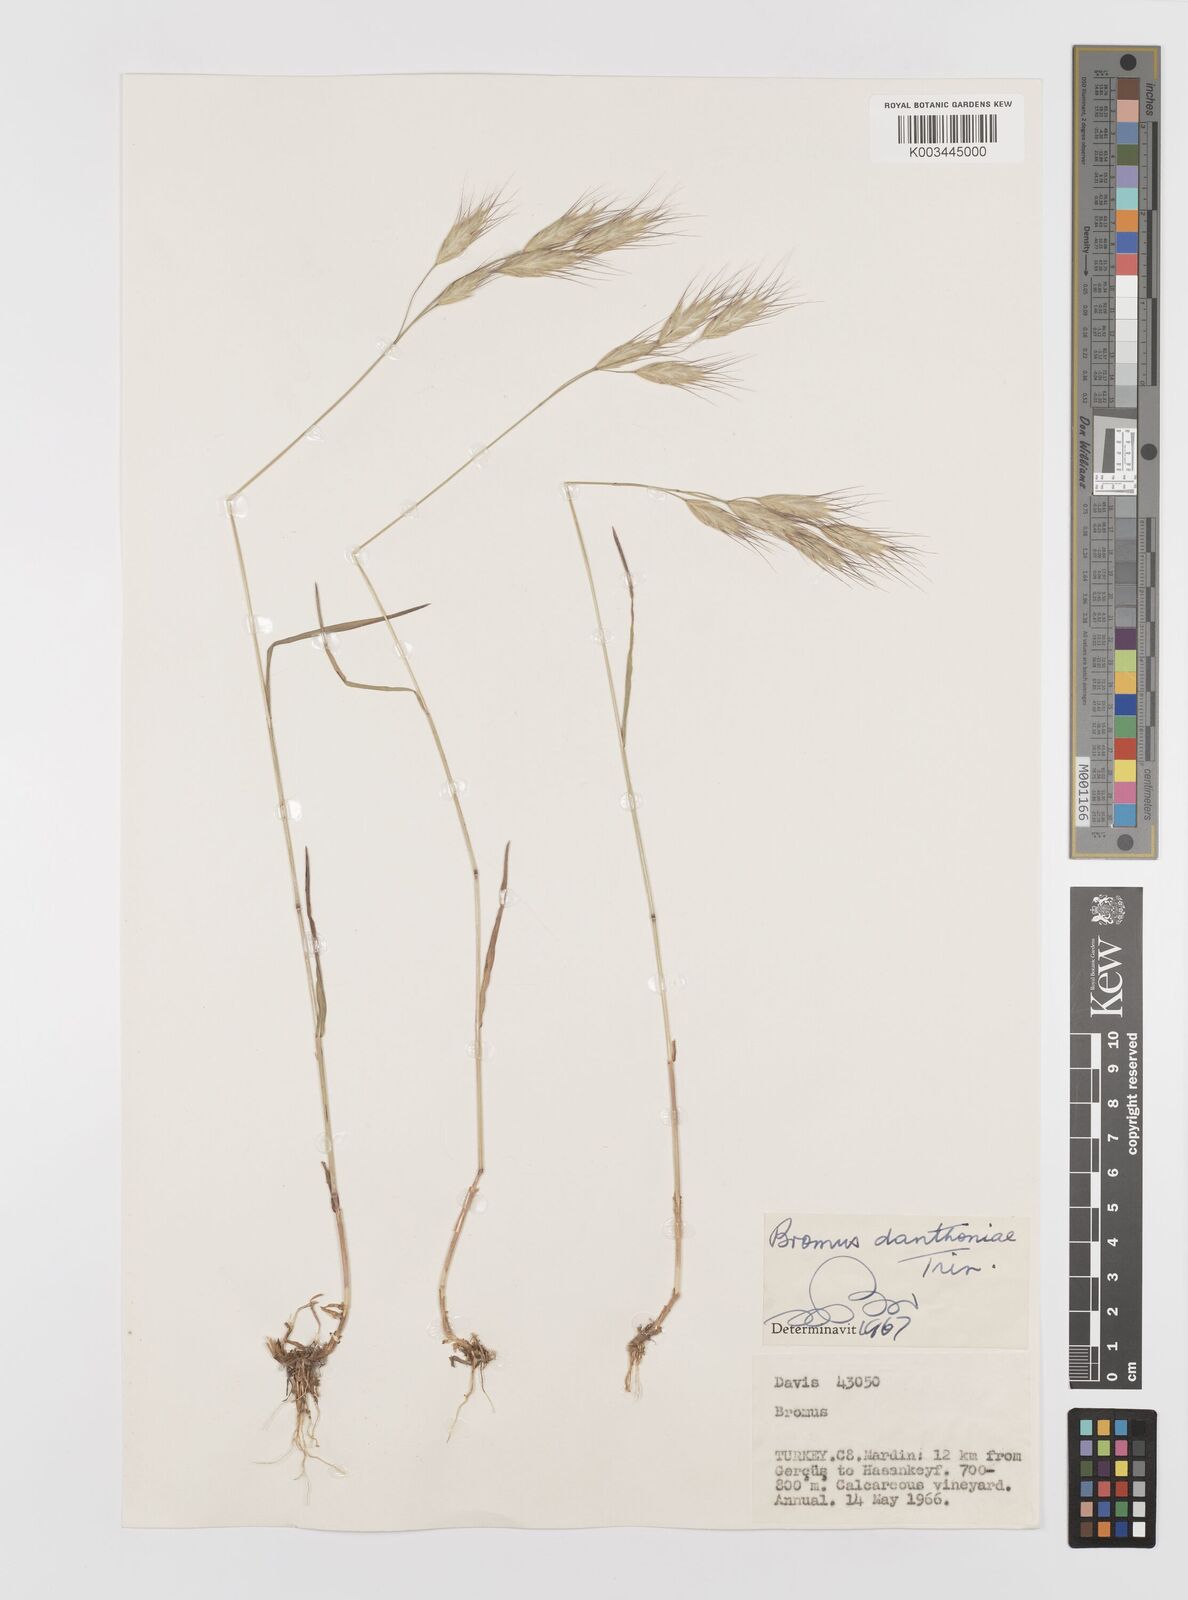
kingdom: Plantae
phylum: Tracheophyta
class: Liliopsida
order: Poales
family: Poaceae
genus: Bromus
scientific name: Bromus danthoniae
